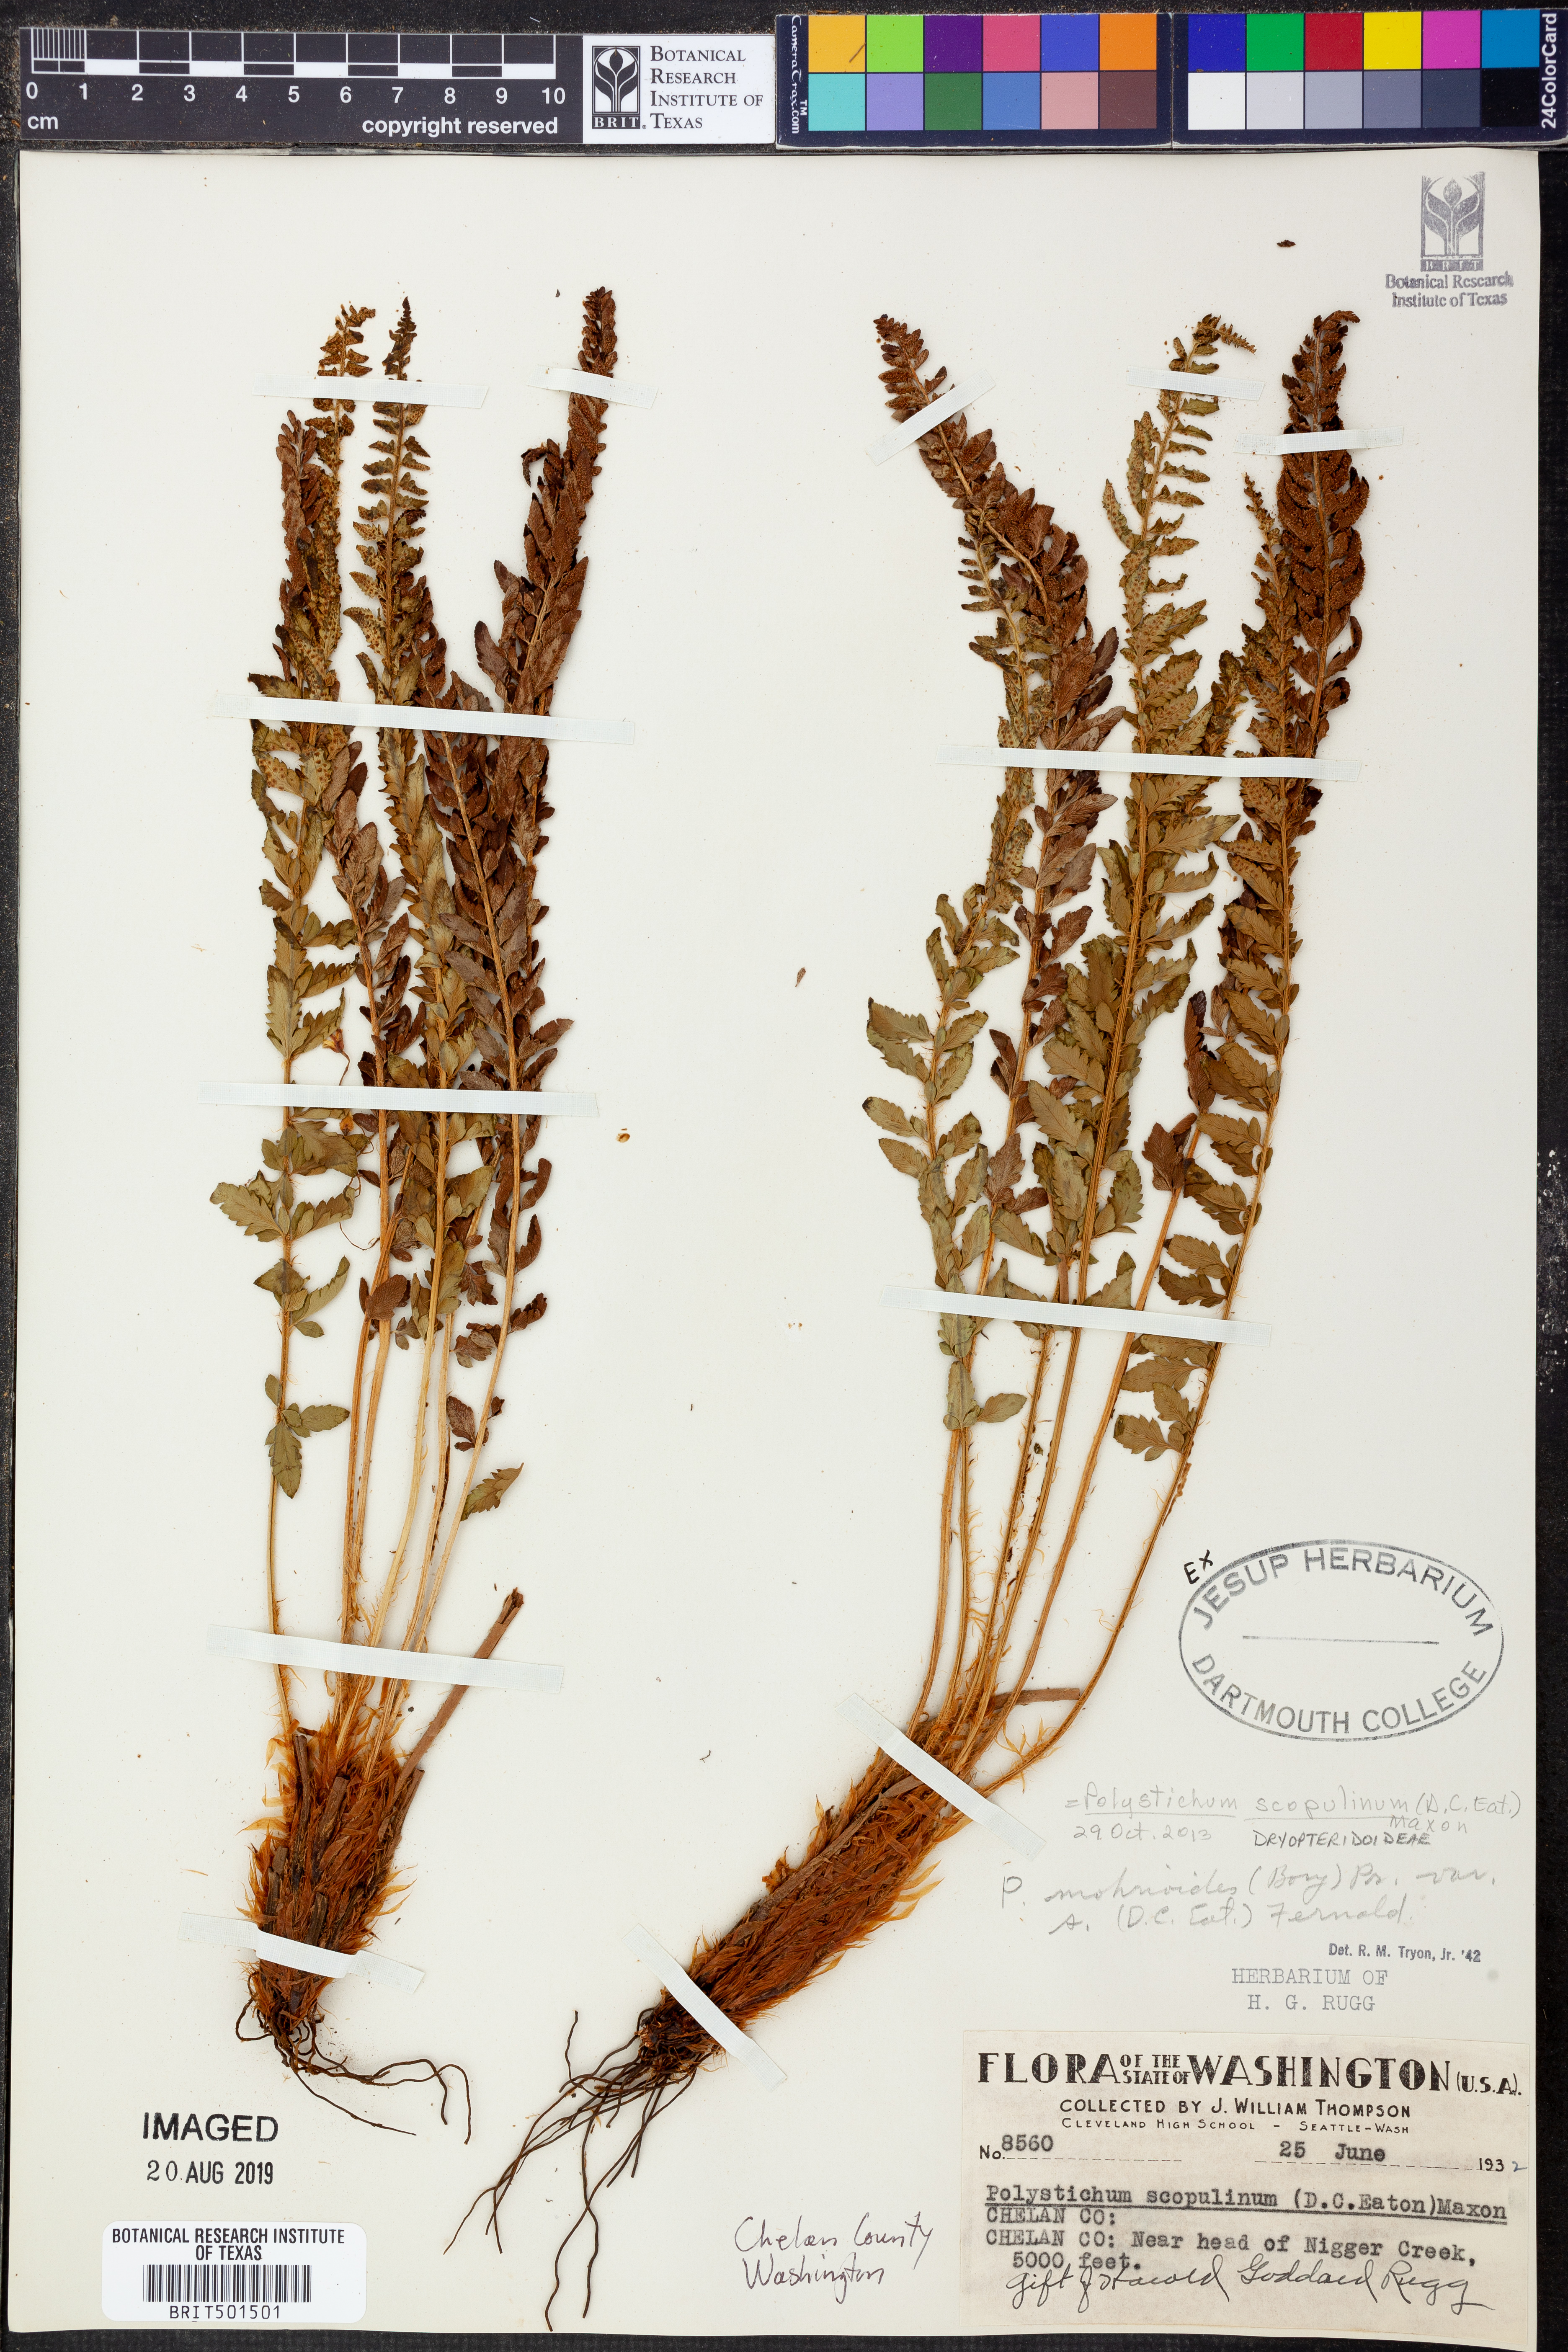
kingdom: Plantae
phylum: Tracheophyta
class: Polypodiopsida
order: Polypodiales
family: Dryopteridaceae
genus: Polystichum
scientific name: Polystichum scopulinum
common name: Eaton's shield fern
